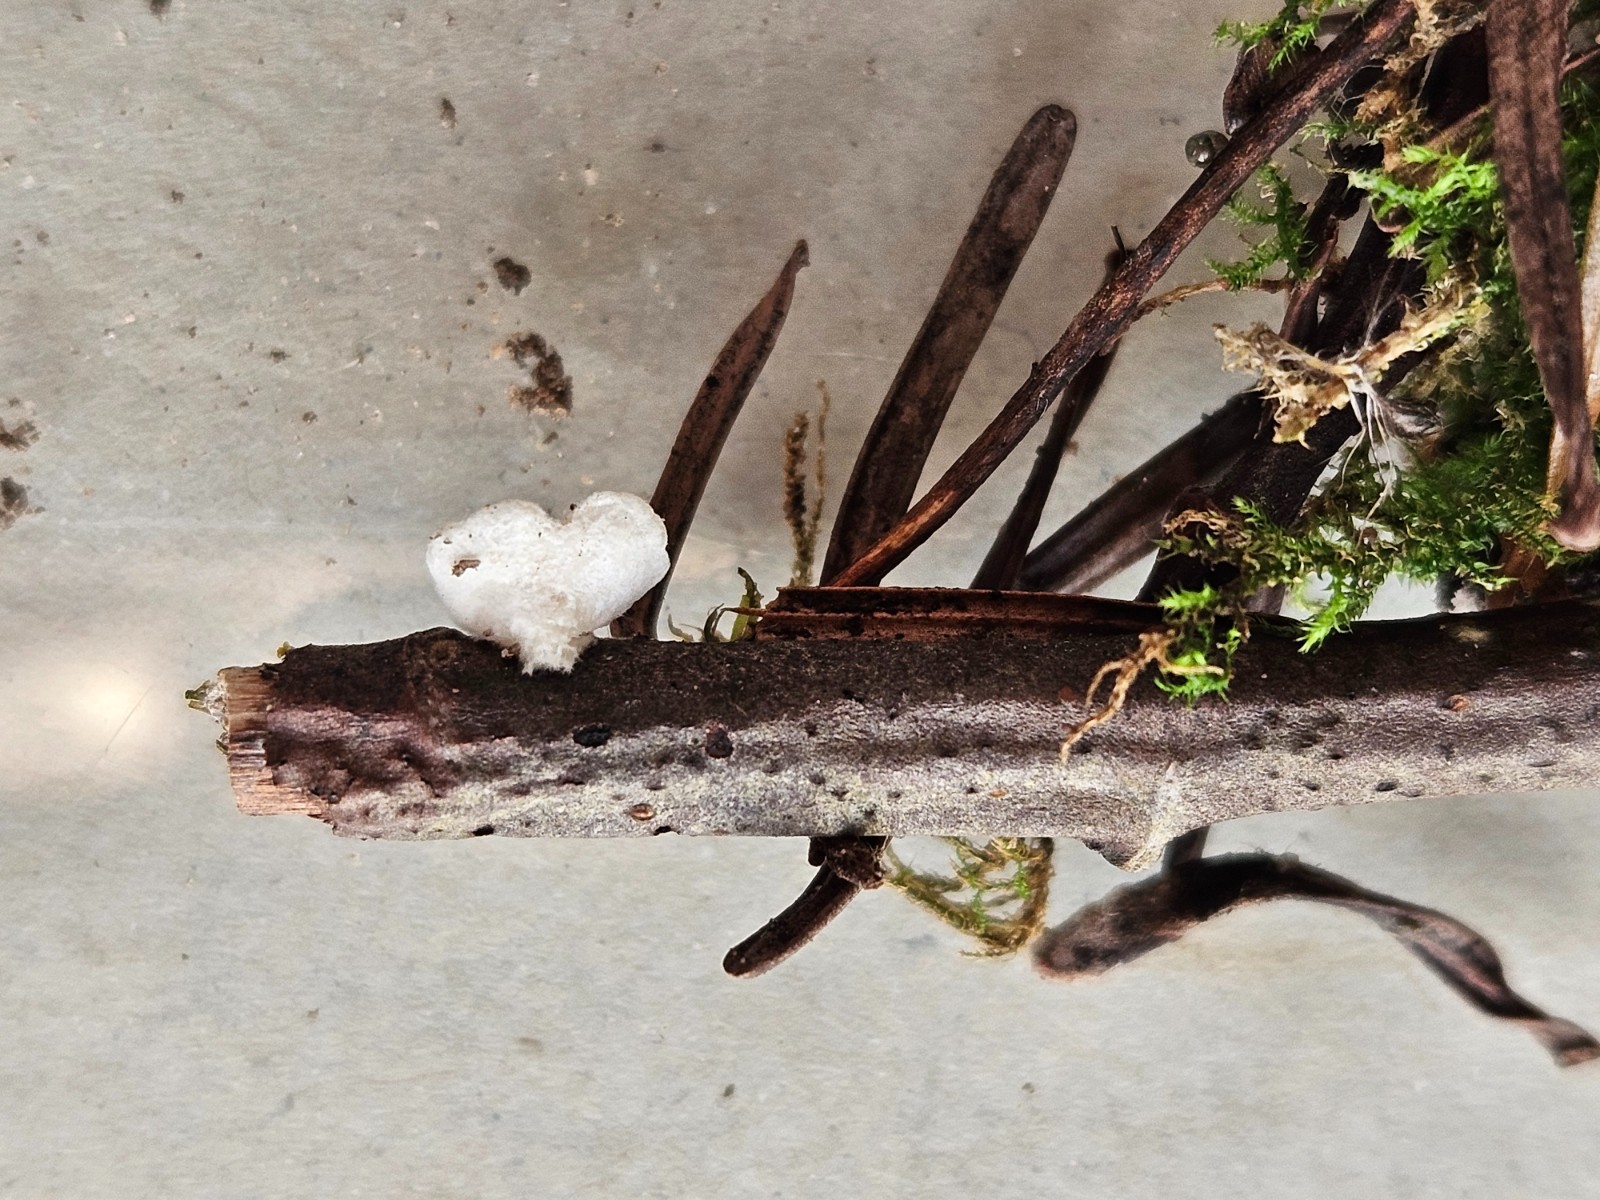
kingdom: Fungi
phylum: Basidiomycota
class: Agaricomycetes
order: Agaricales
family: Crepidotaceae
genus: Crepidotus
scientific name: Crepidotus
